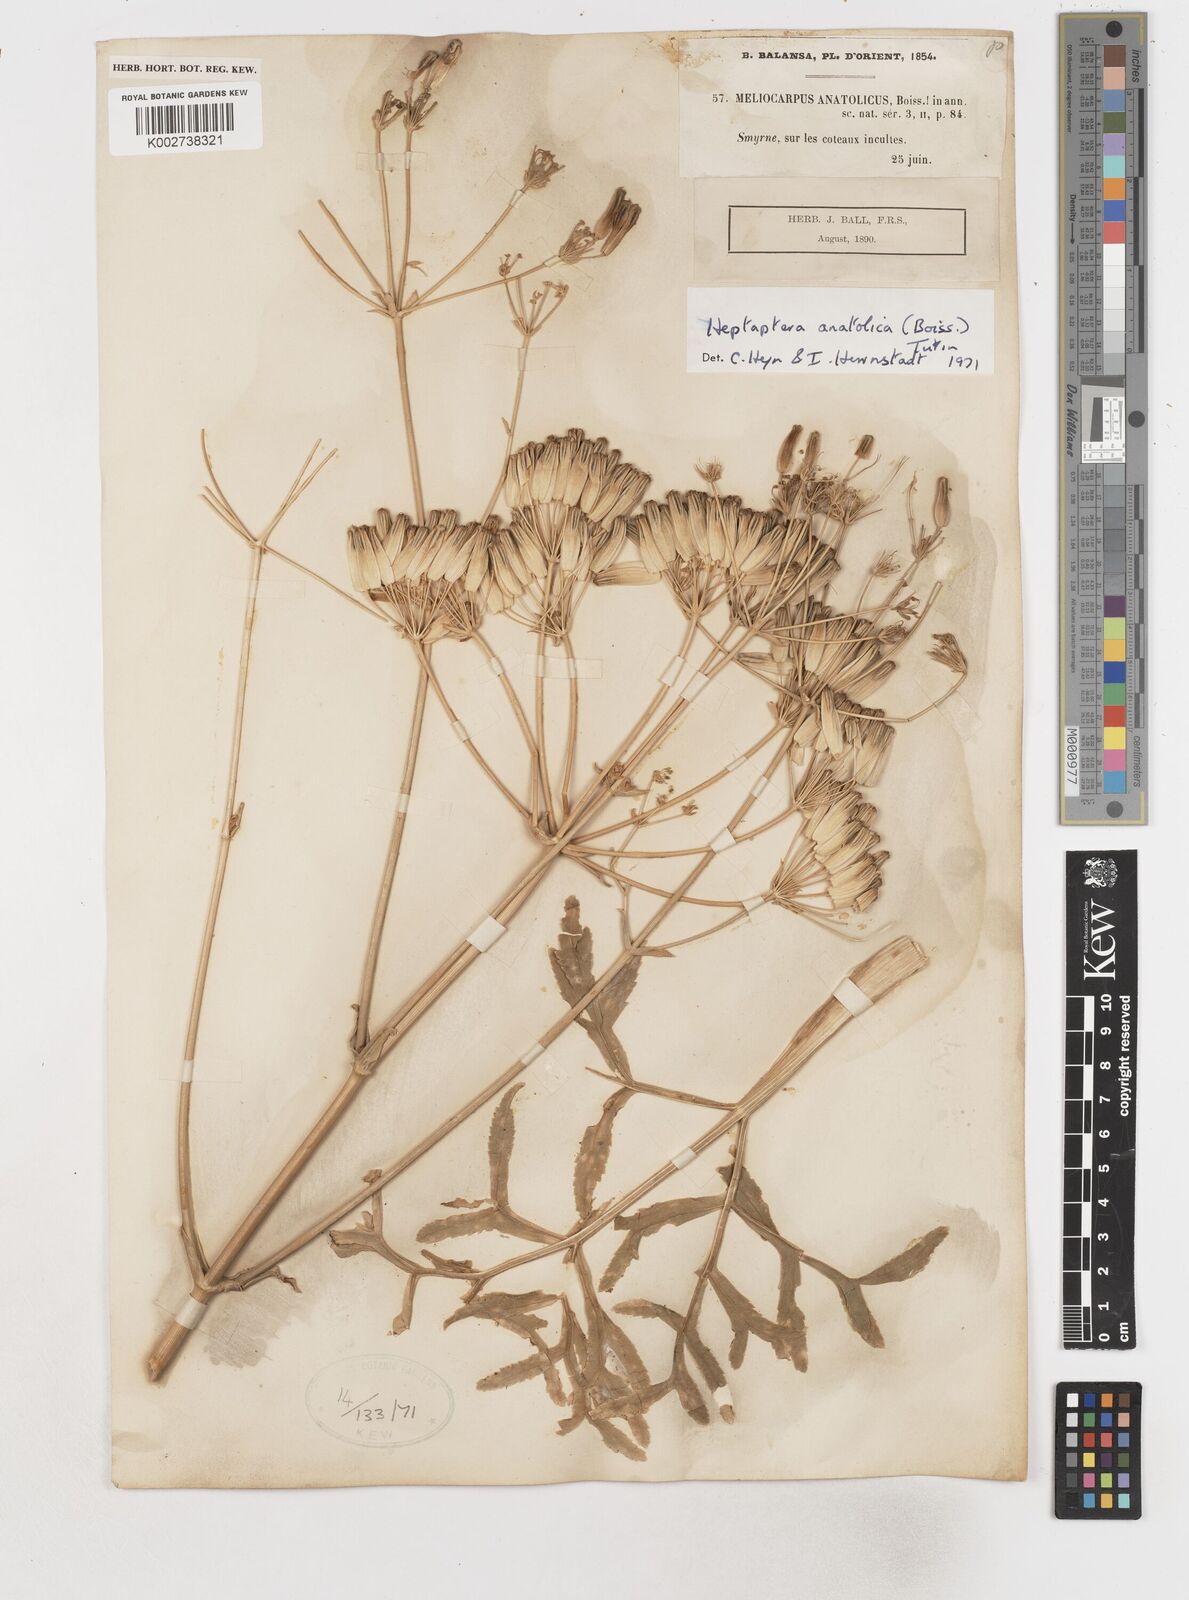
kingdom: Plantae
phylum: Tracheophyta
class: Magnoliopsida
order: Apiales
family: Apiaceae
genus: Heptaptera
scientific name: Heptaptera anatolica
